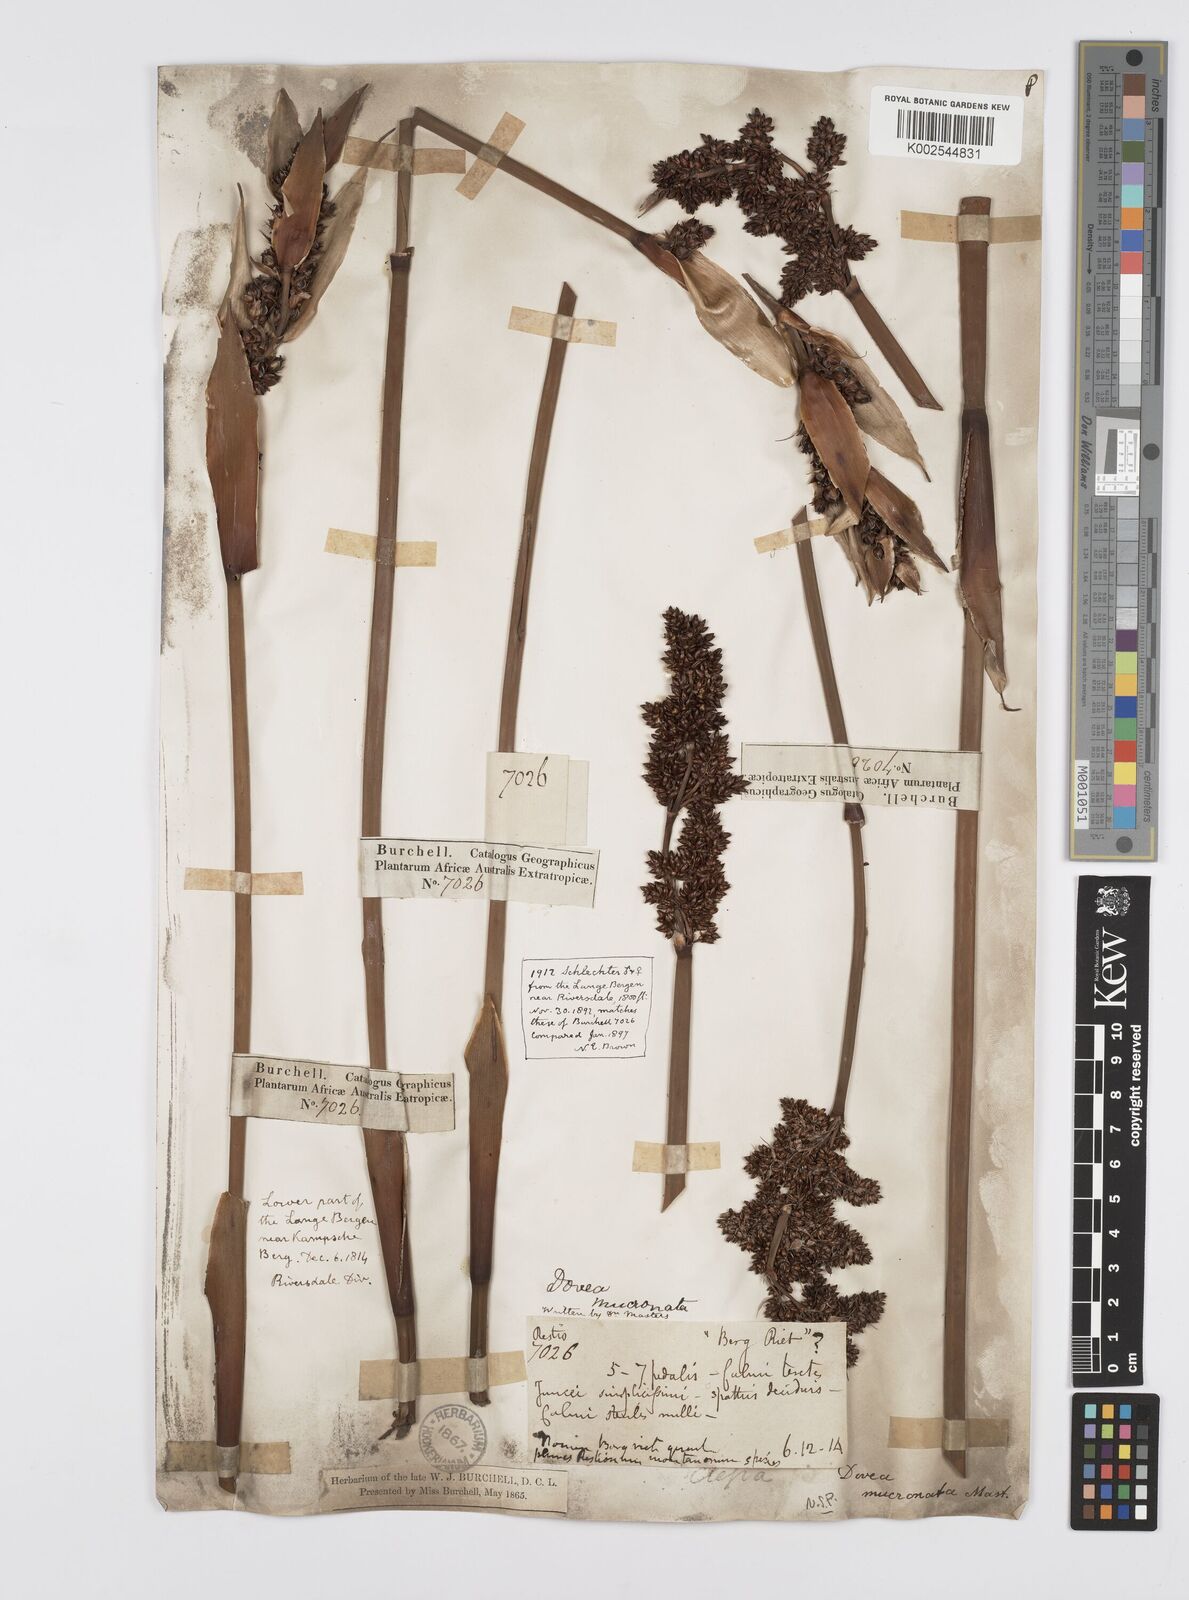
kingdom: Plantae
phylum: Tracheophyta
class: Liliopsida
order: Poales
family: Restionaceae
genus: Elegia
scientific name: Elegia mucronata
